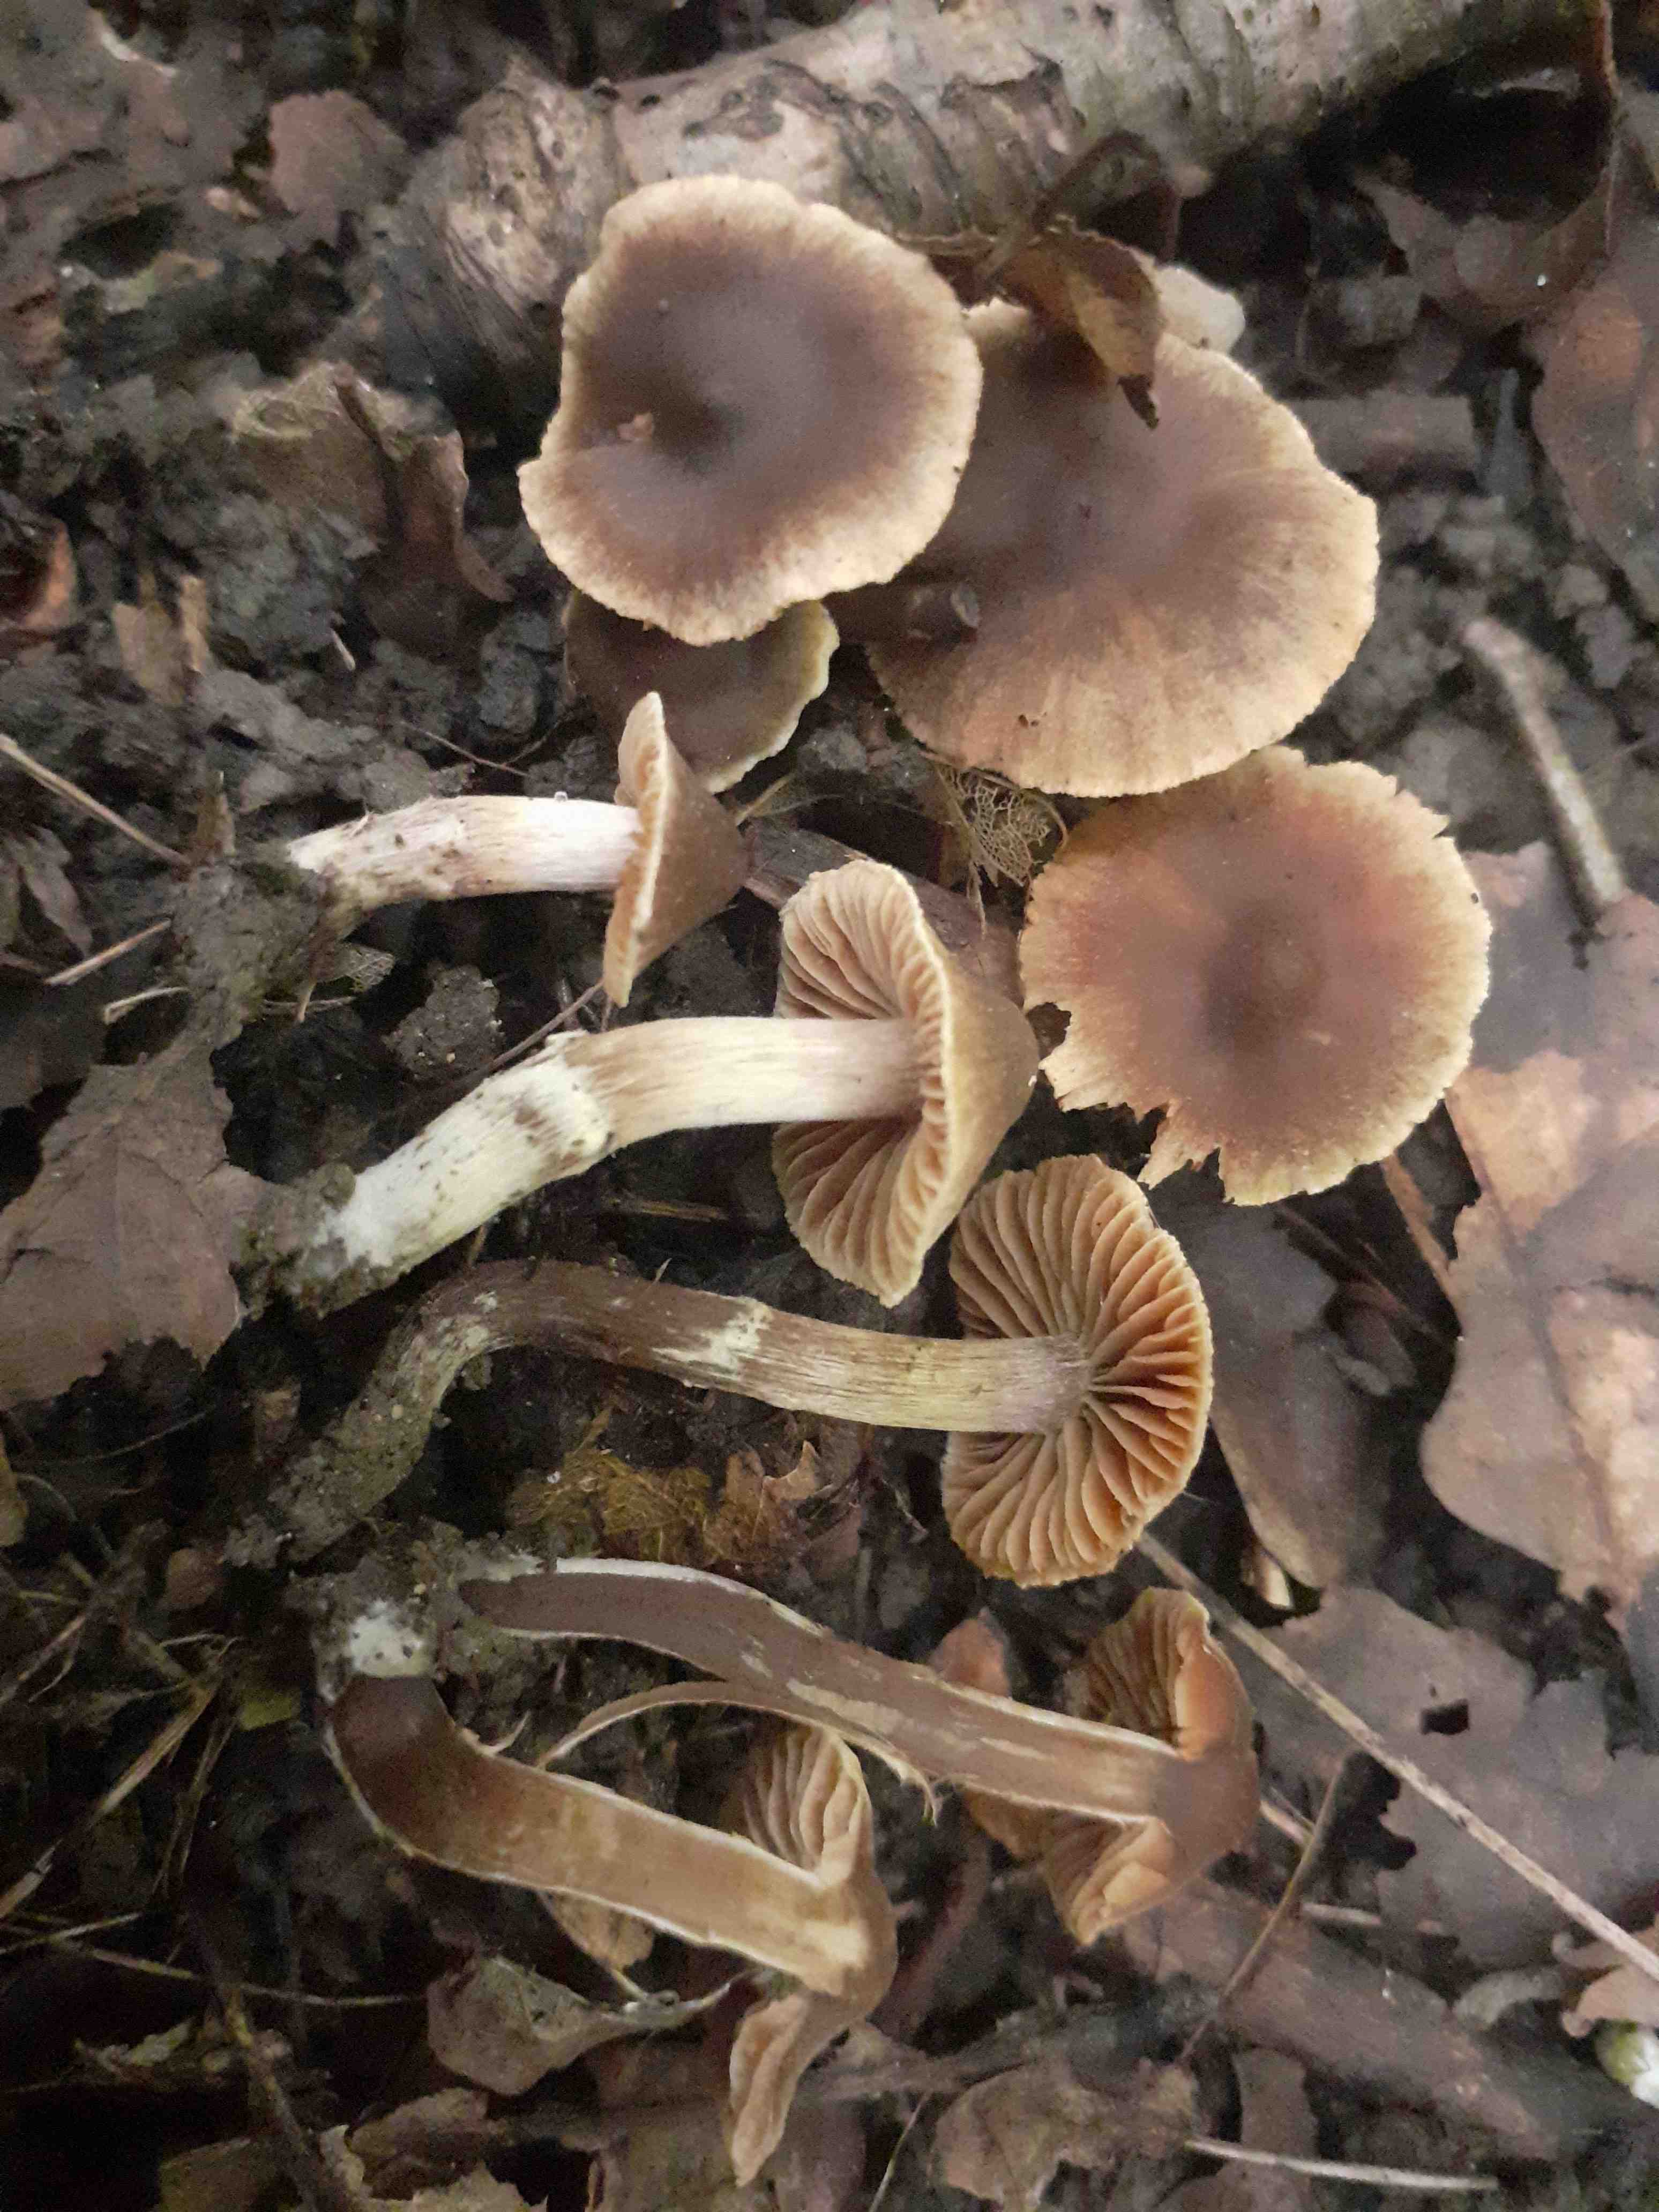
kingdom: Fungi
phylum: Basidiomycota
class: Agaricomycetes
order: Agaricales
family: Cortinariaceae
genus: Cortinarius
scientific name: Cortinarius megacystidiosus
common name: lavbæltet slørhat
